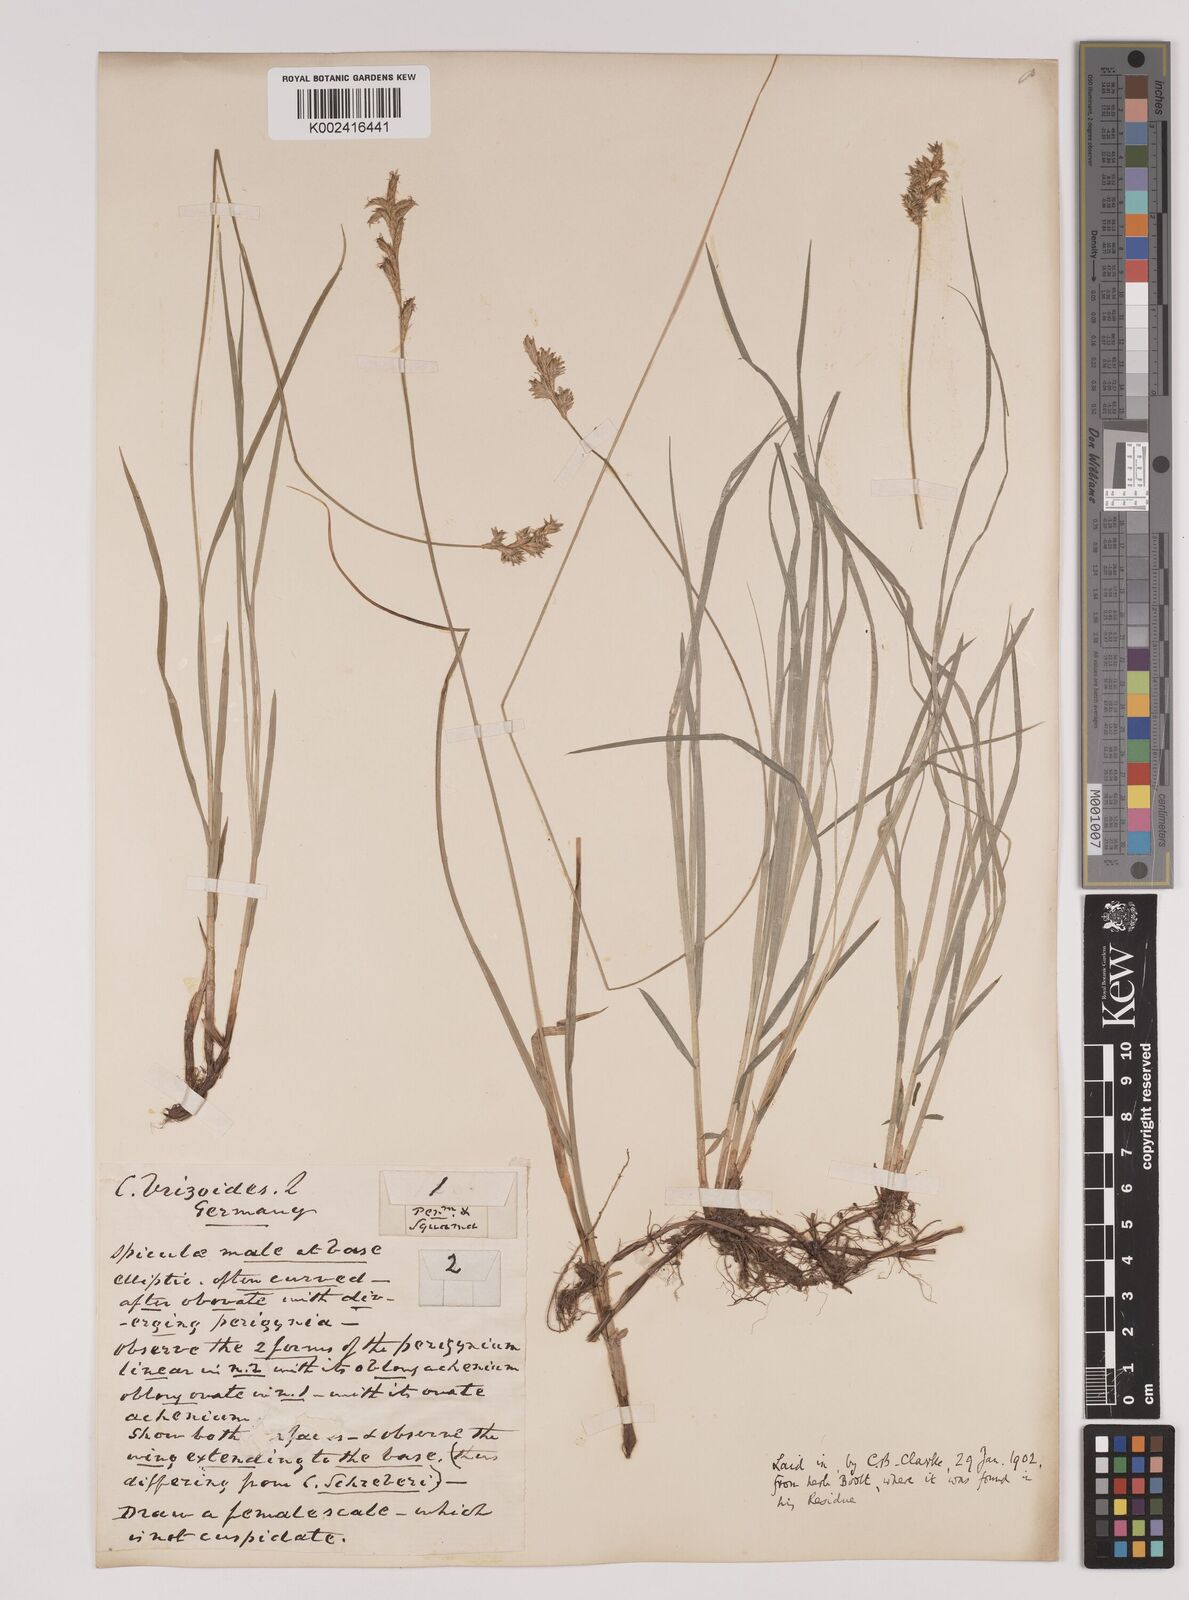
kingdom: Plantae
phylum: Tracheophyta
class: Liliopsida
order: Poales
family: Cyperaceae
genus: Carex
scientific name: Carex brizoides
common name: Quaking-grass sedge
